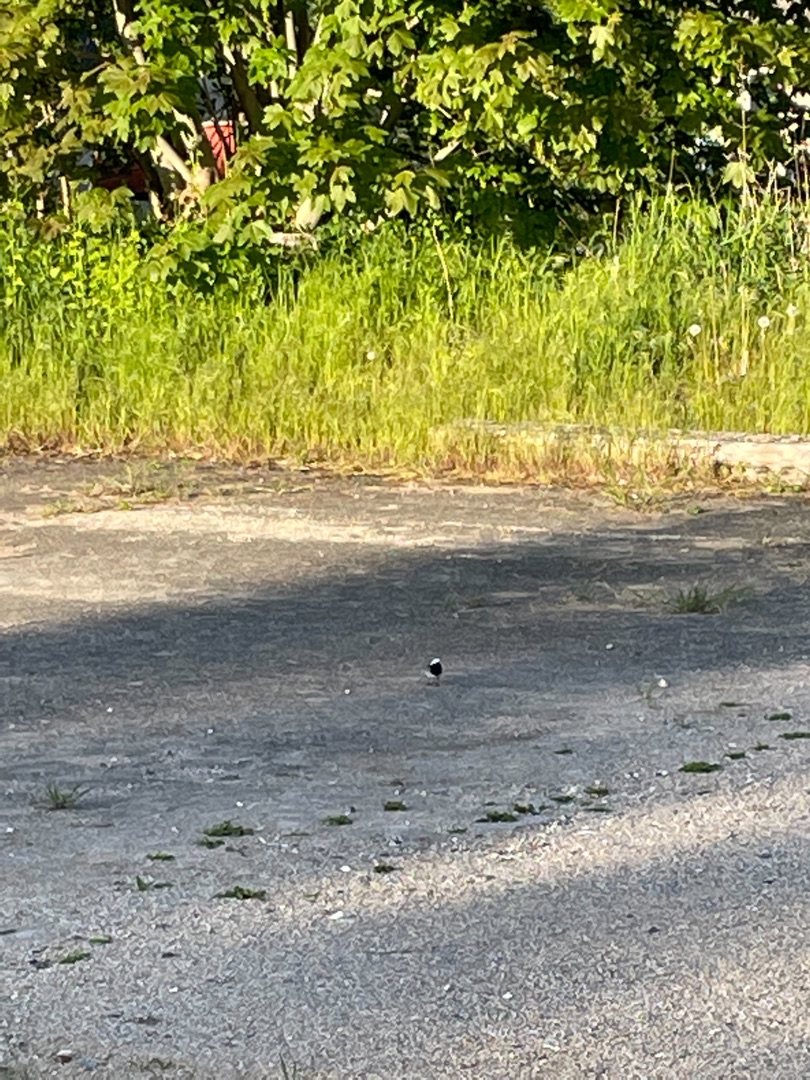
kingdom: Animalia
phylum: Chordata
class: Aves
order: Passeriformes
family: Motacillidae
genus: Motacilla
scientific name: Motacilla alba
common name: Hvid vipstjert
